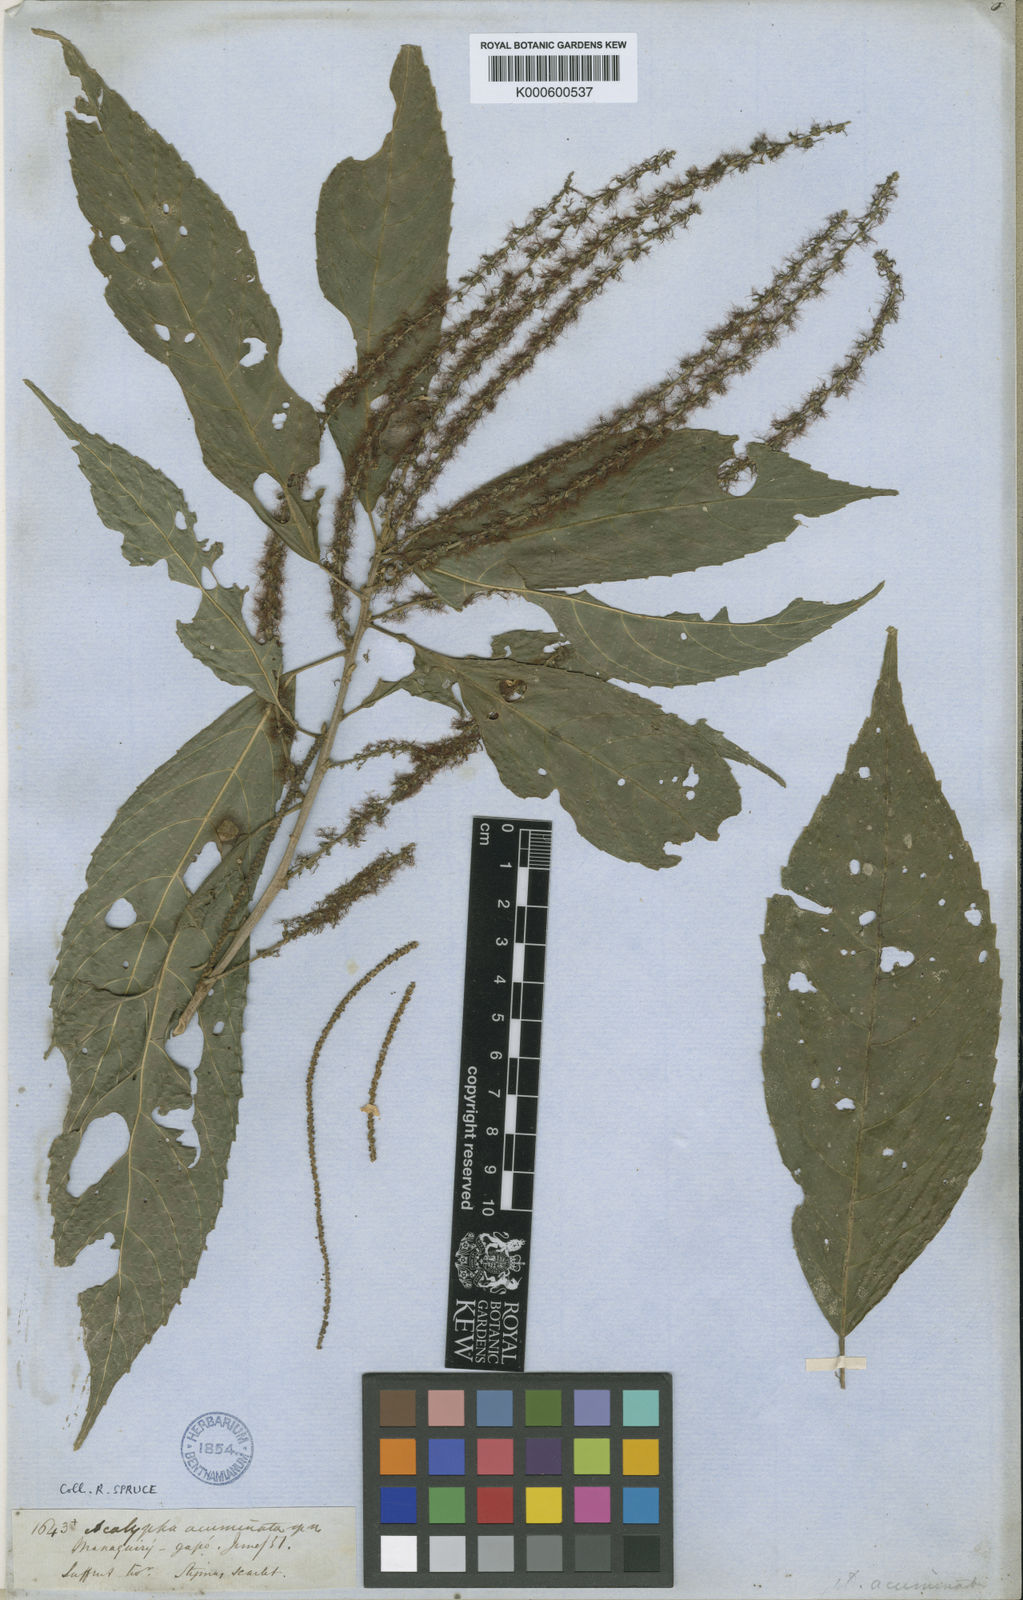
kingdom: Plantae
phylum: Tracheophyta
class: Magnoliopsida
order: Malpighiales
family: Euphorbiaceae
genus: Acalypha
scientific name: Acalypha acuminata
